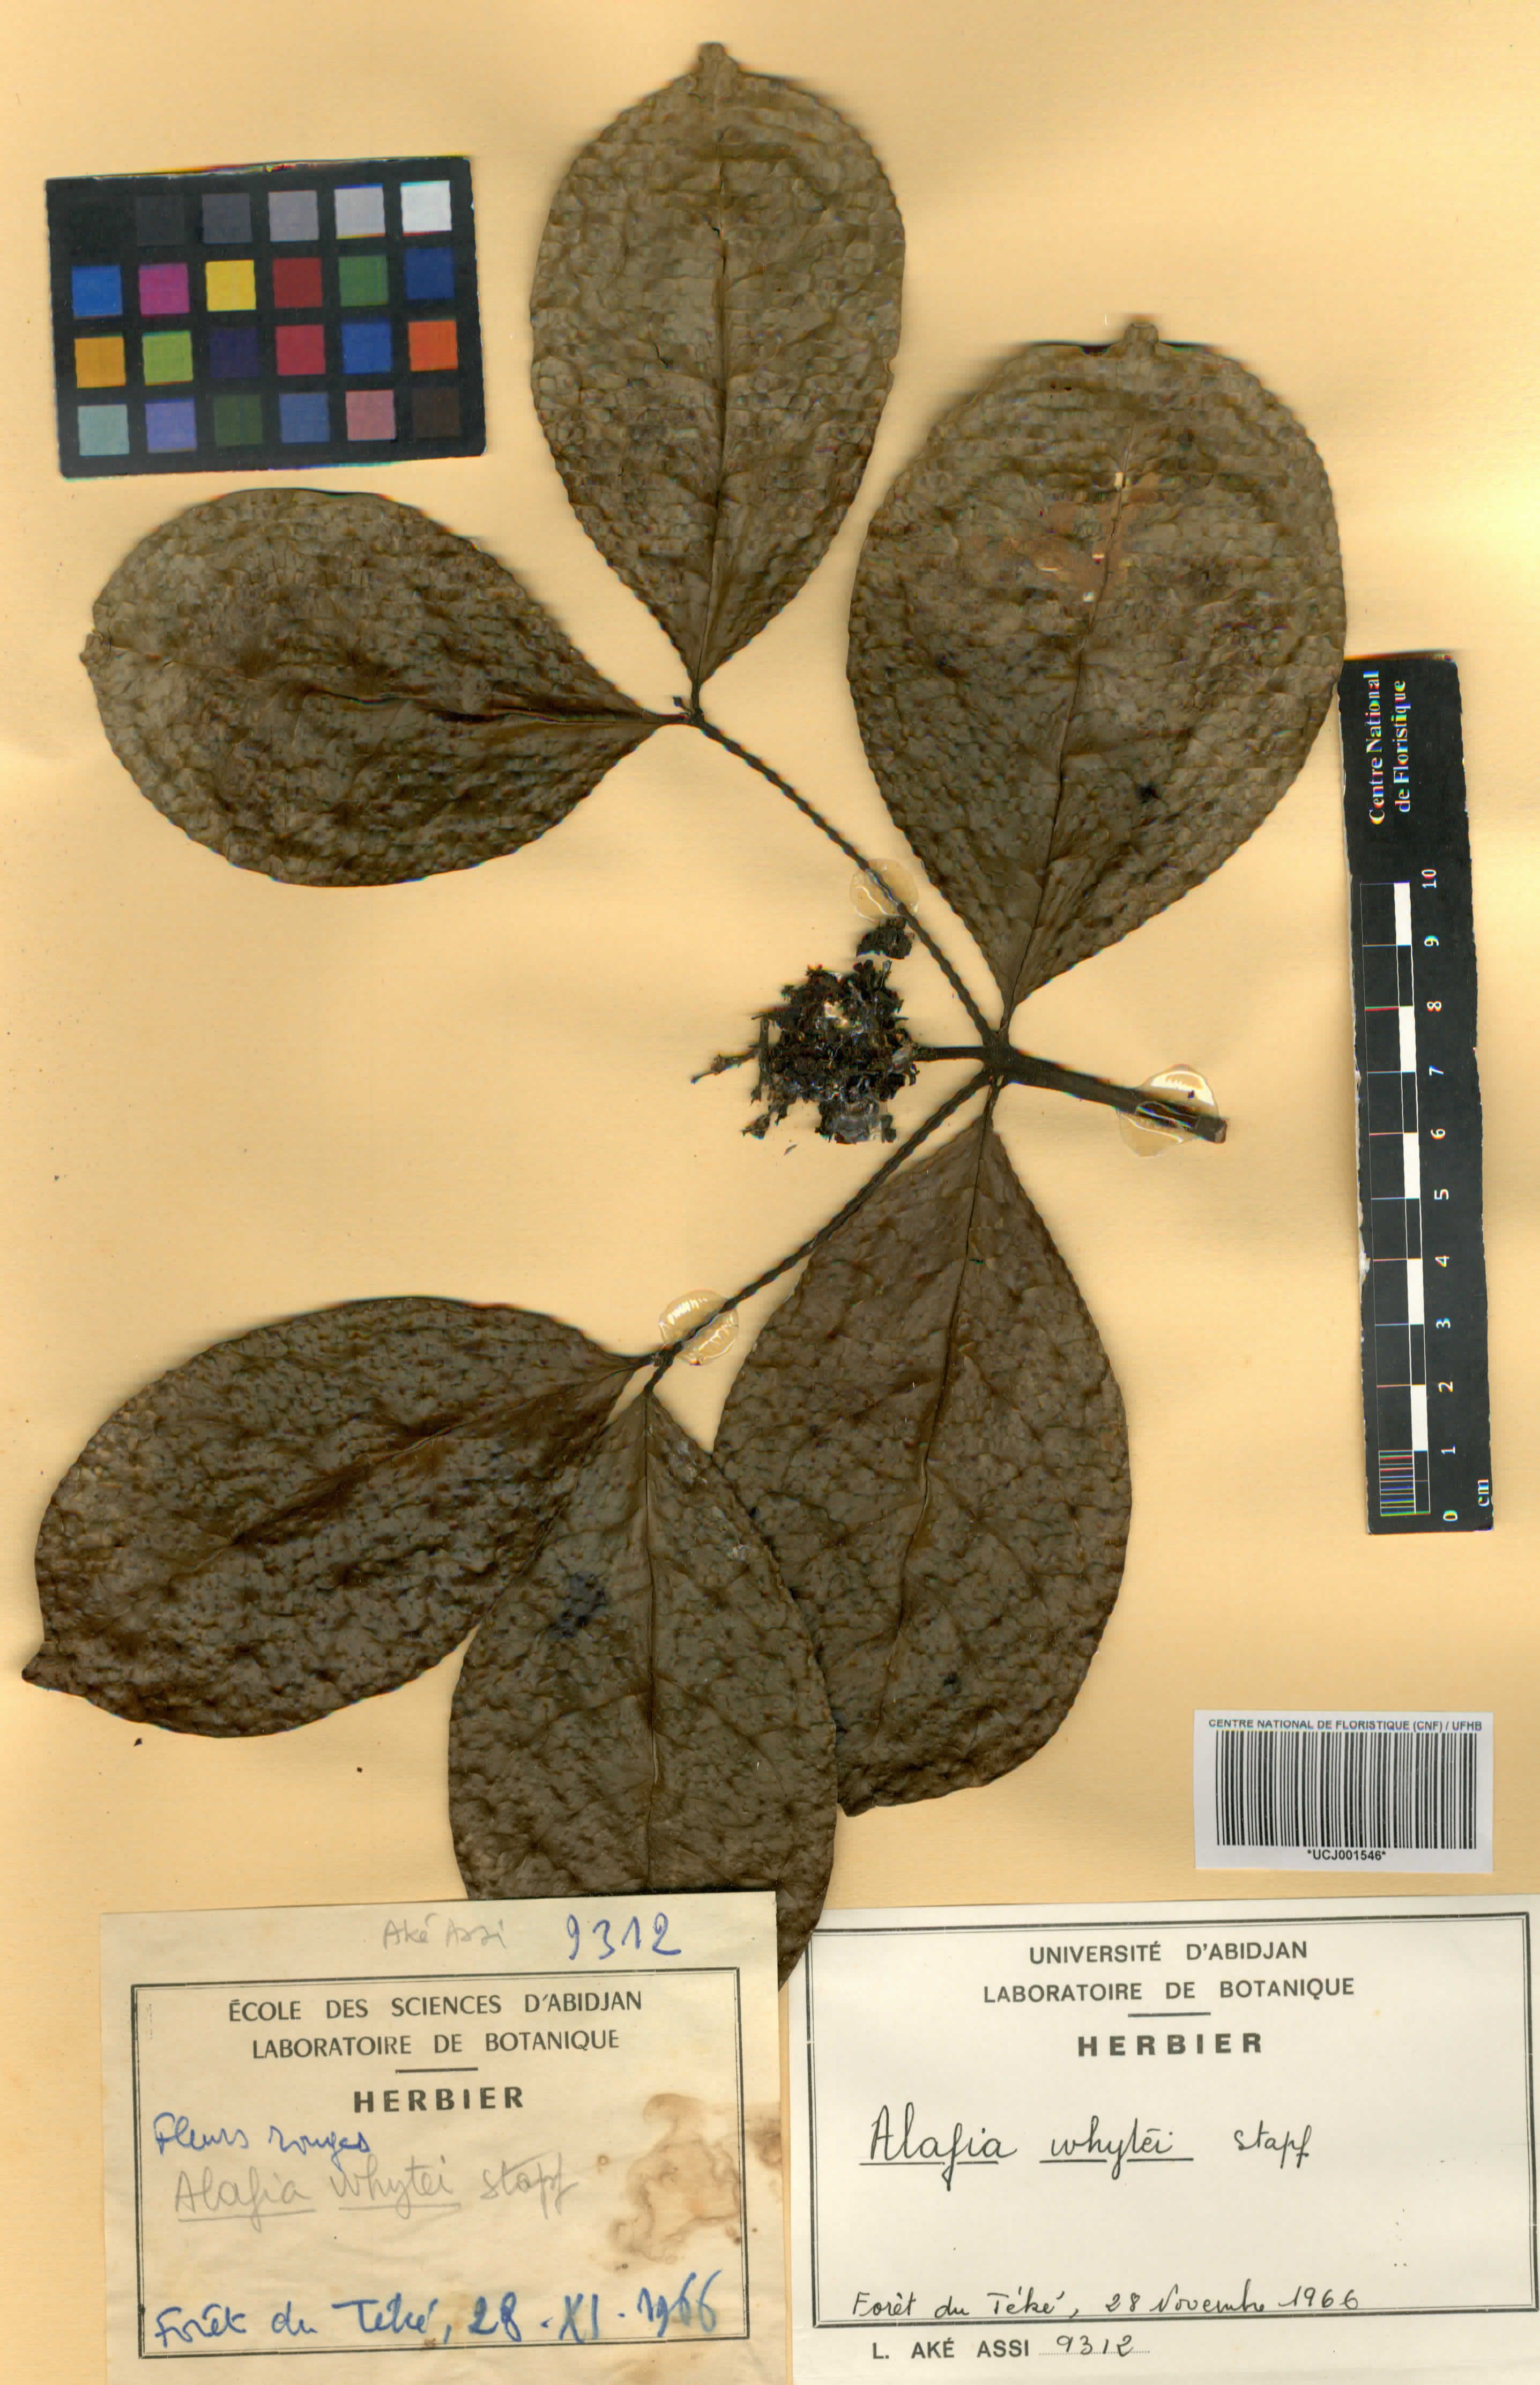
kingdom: Plantae
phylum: Tracheophyta
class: Magnoliopsida
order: Gentianales
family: Apocynaceae
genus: Alafia
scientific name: Alafia whytei
